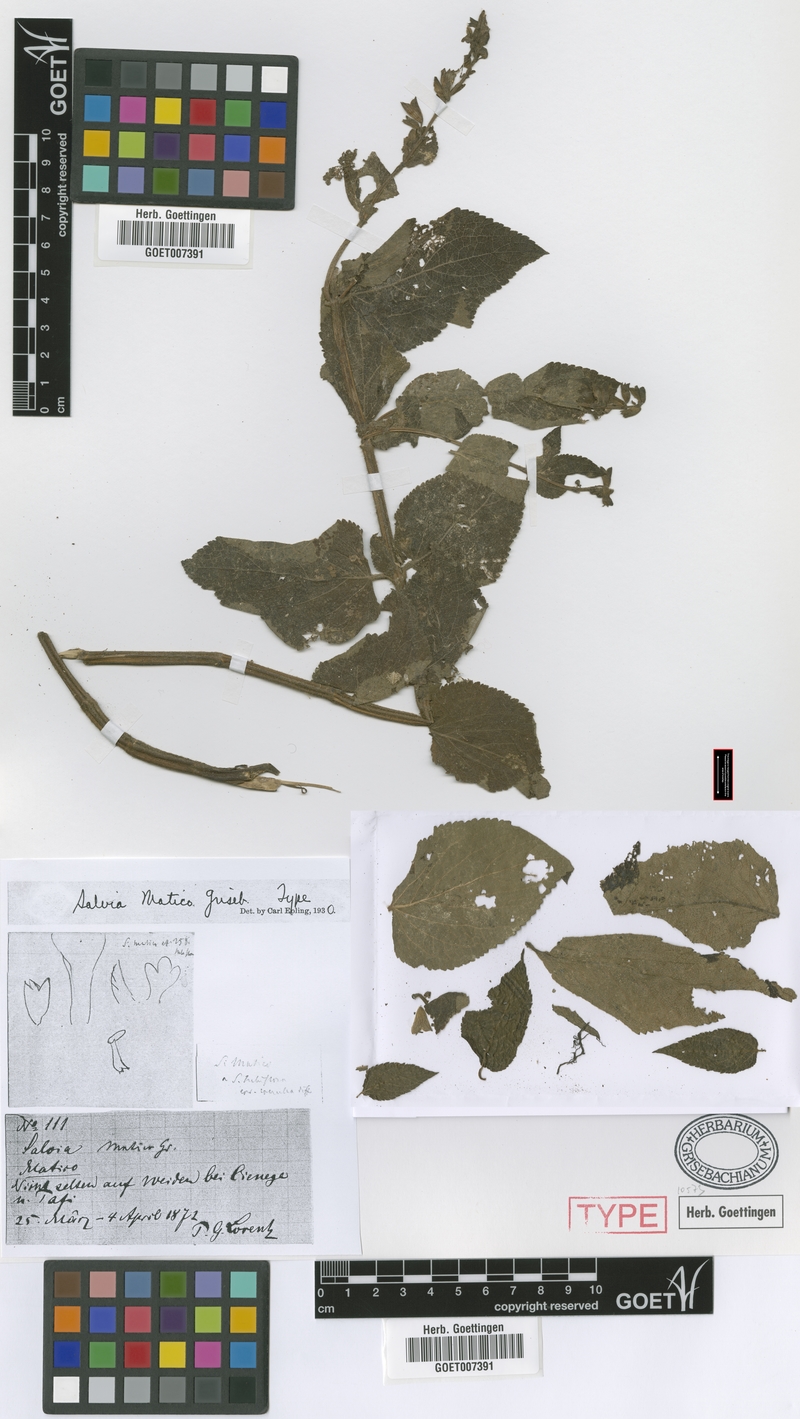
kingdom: Plantae
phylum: Tracheophyta
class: Magnoliopsida
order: Lamiales
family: Lamiaceae
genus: Salvia
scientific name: Salvia stachydifolia
